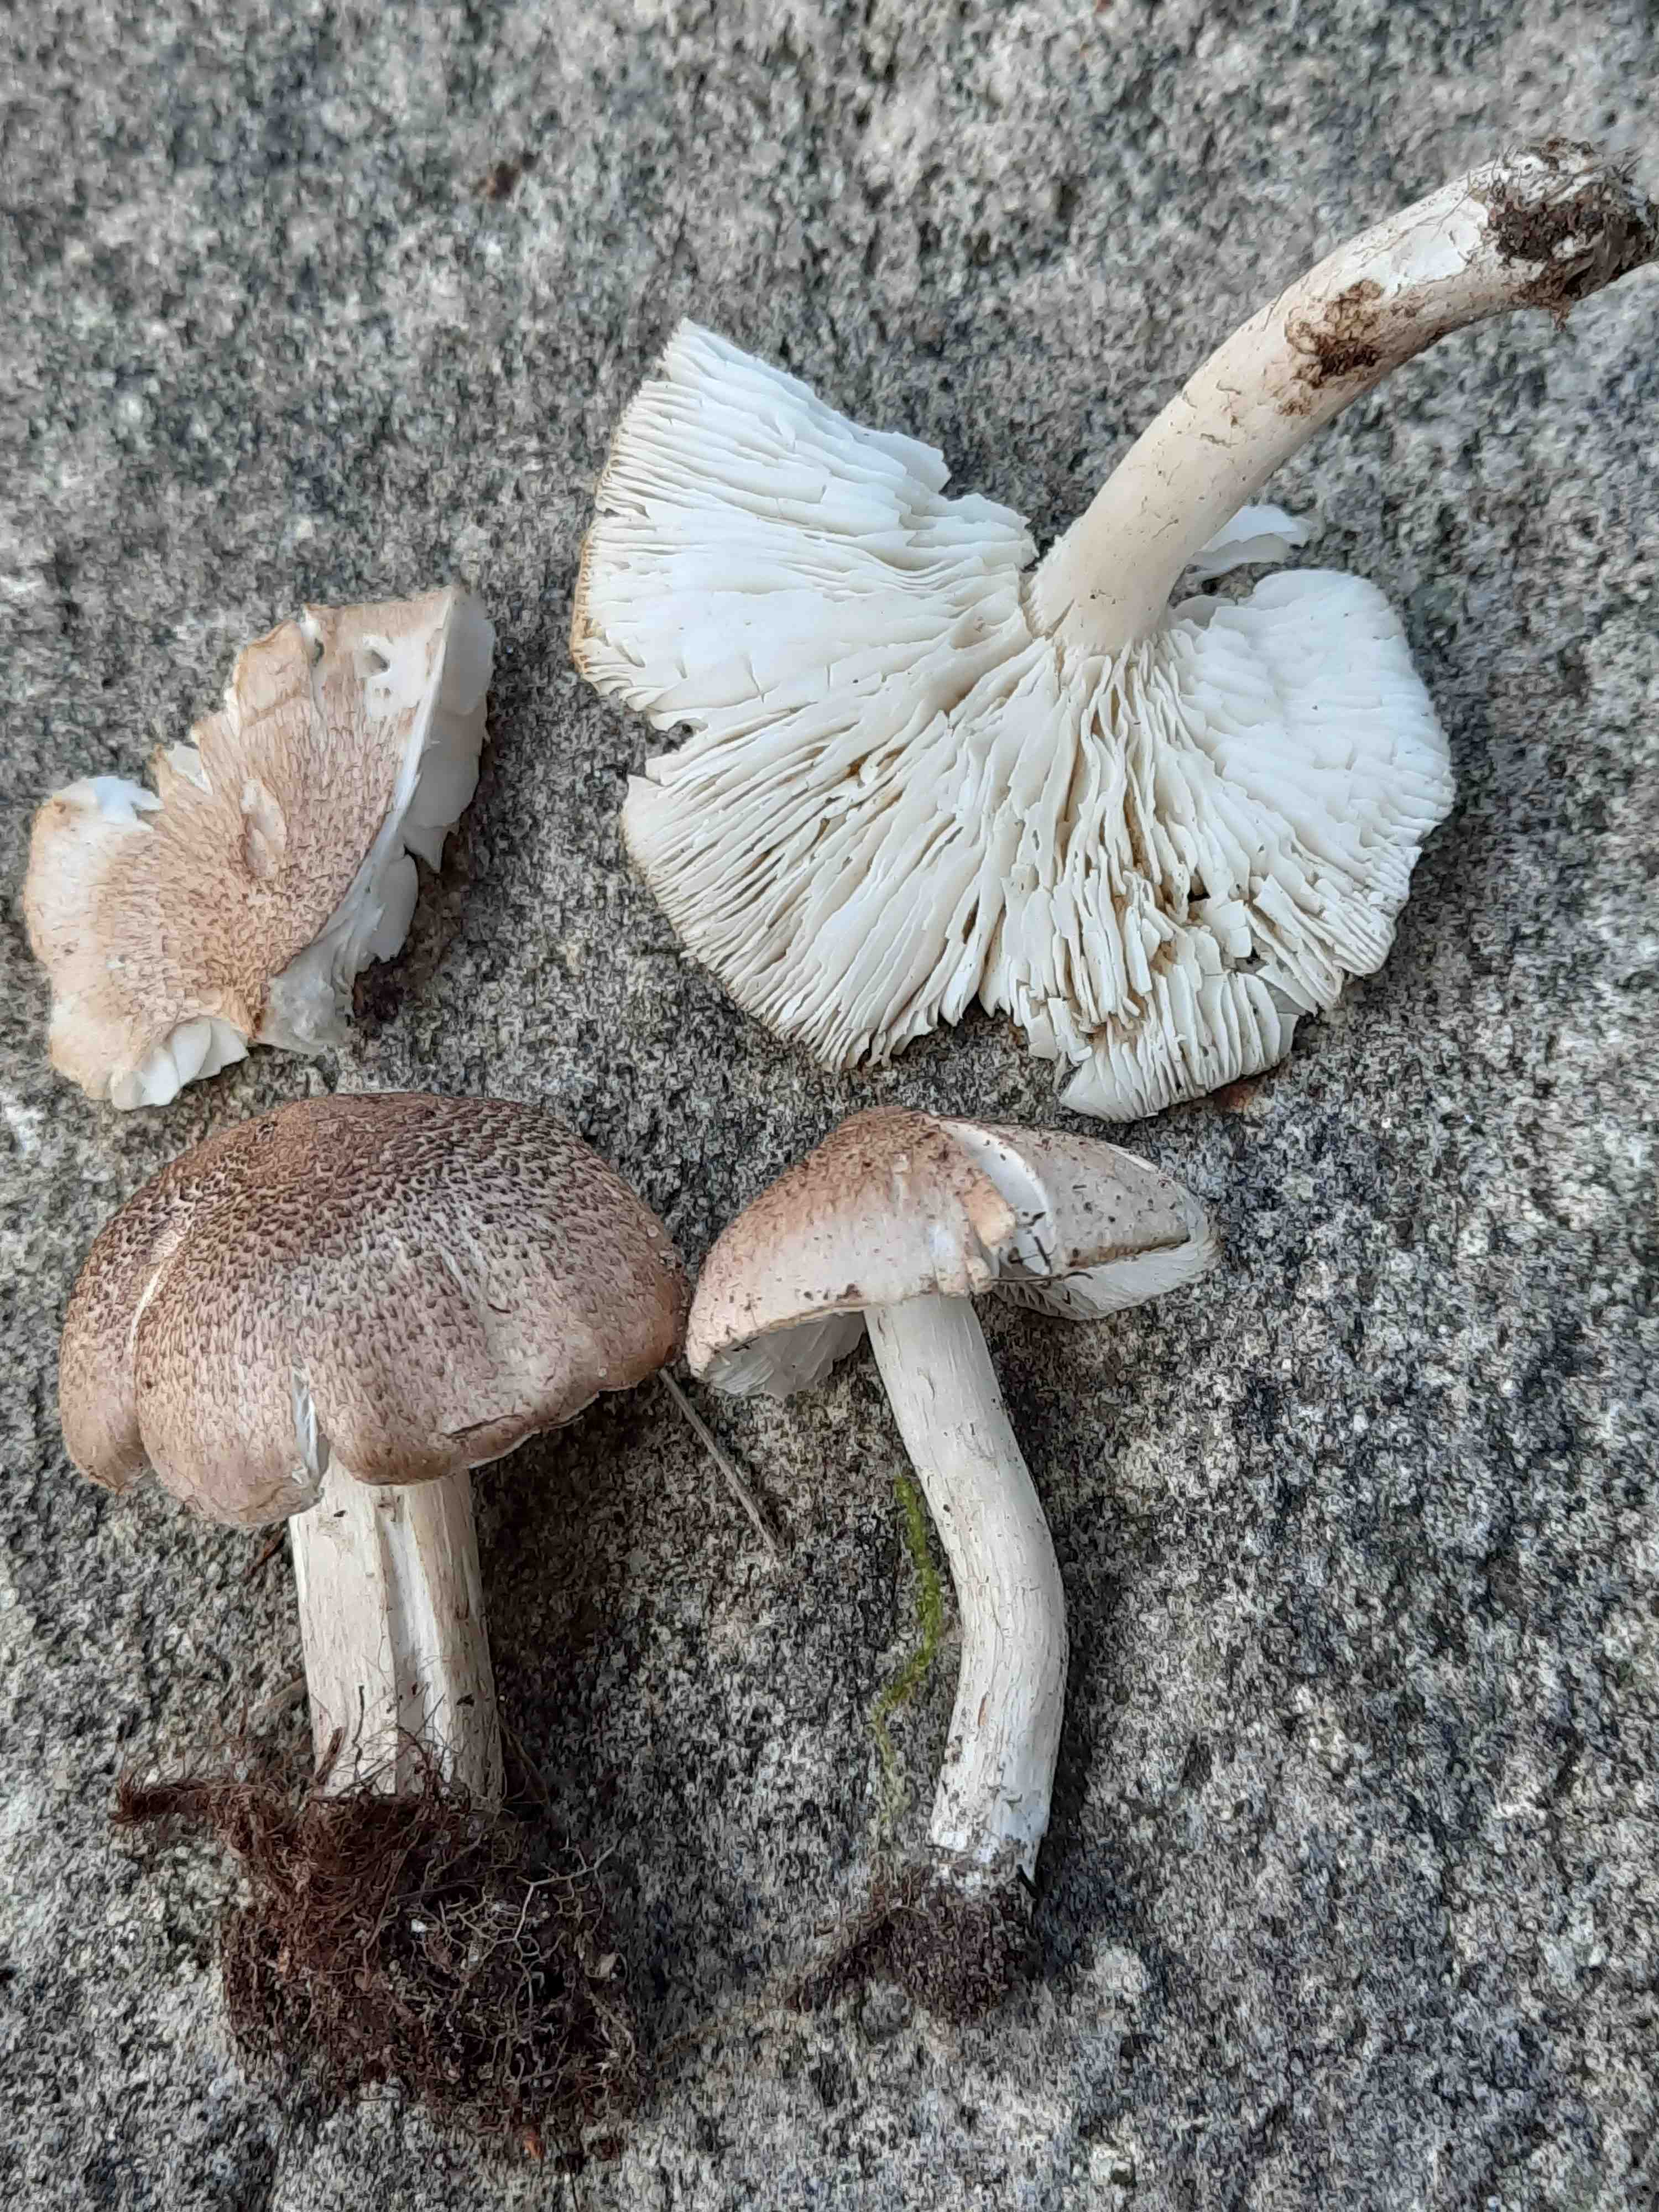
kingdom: Fungi
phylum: Basidiomycota
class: Agaricomycetes
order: Agaricales
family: Tricholomataceae
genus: Tricholoma
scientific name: Tricholoma scalpturatum
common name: gulplettet ridderhat
